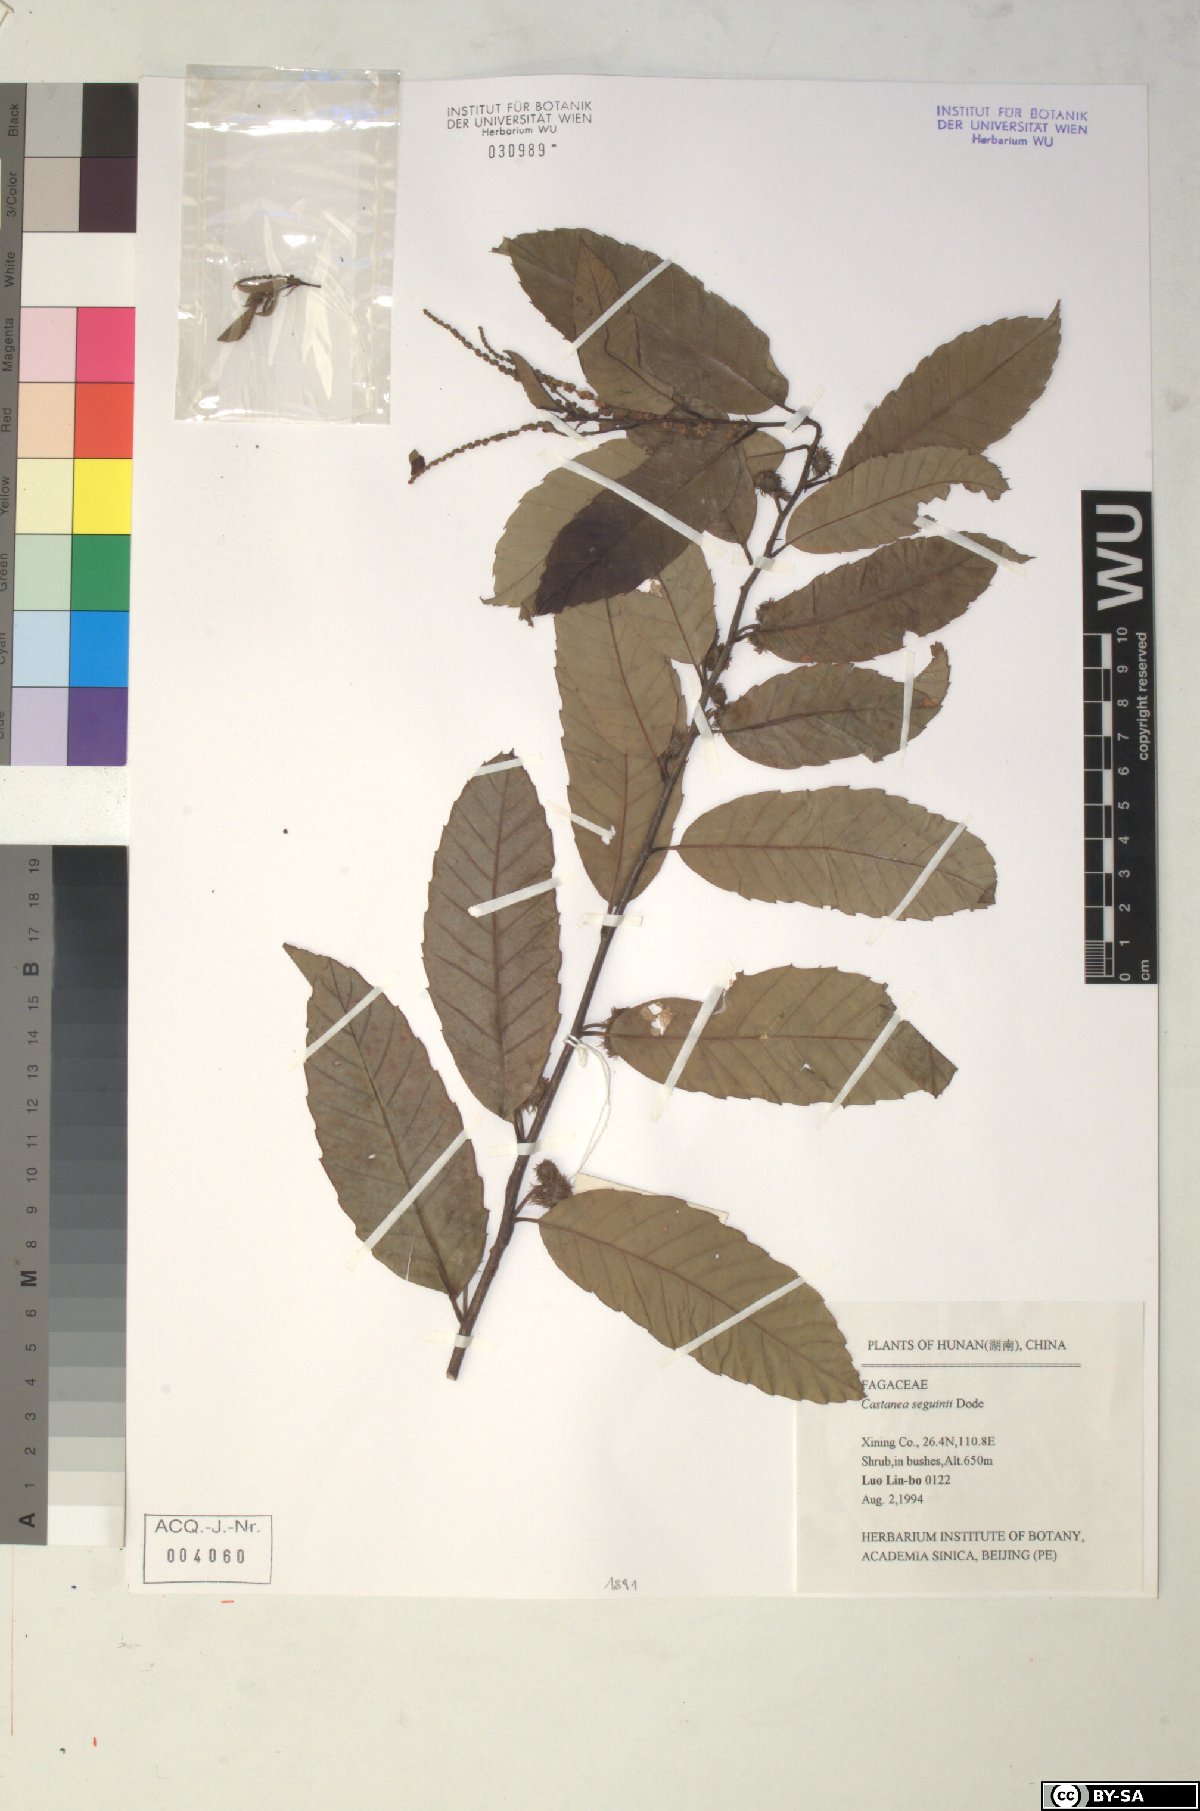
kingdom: Plantae
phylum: Tracheophyta
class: Magnoliopsida
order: Fagales
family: Fagaceae
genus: Castanea
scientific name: Castanea seguinii
